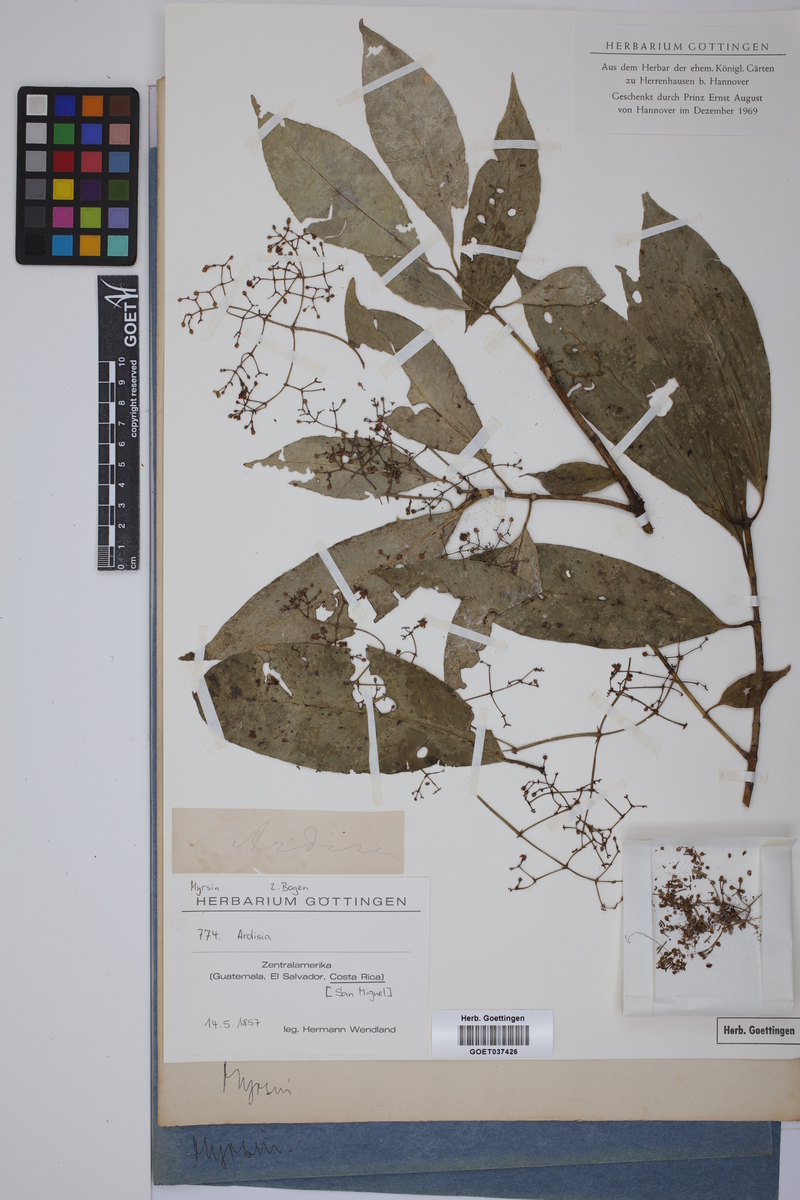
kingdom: Plantae
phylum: Tracheophyta
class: Magnoliopsida
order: Ericales
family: Primulaceae
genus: Ardisia
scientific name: Ardisia
